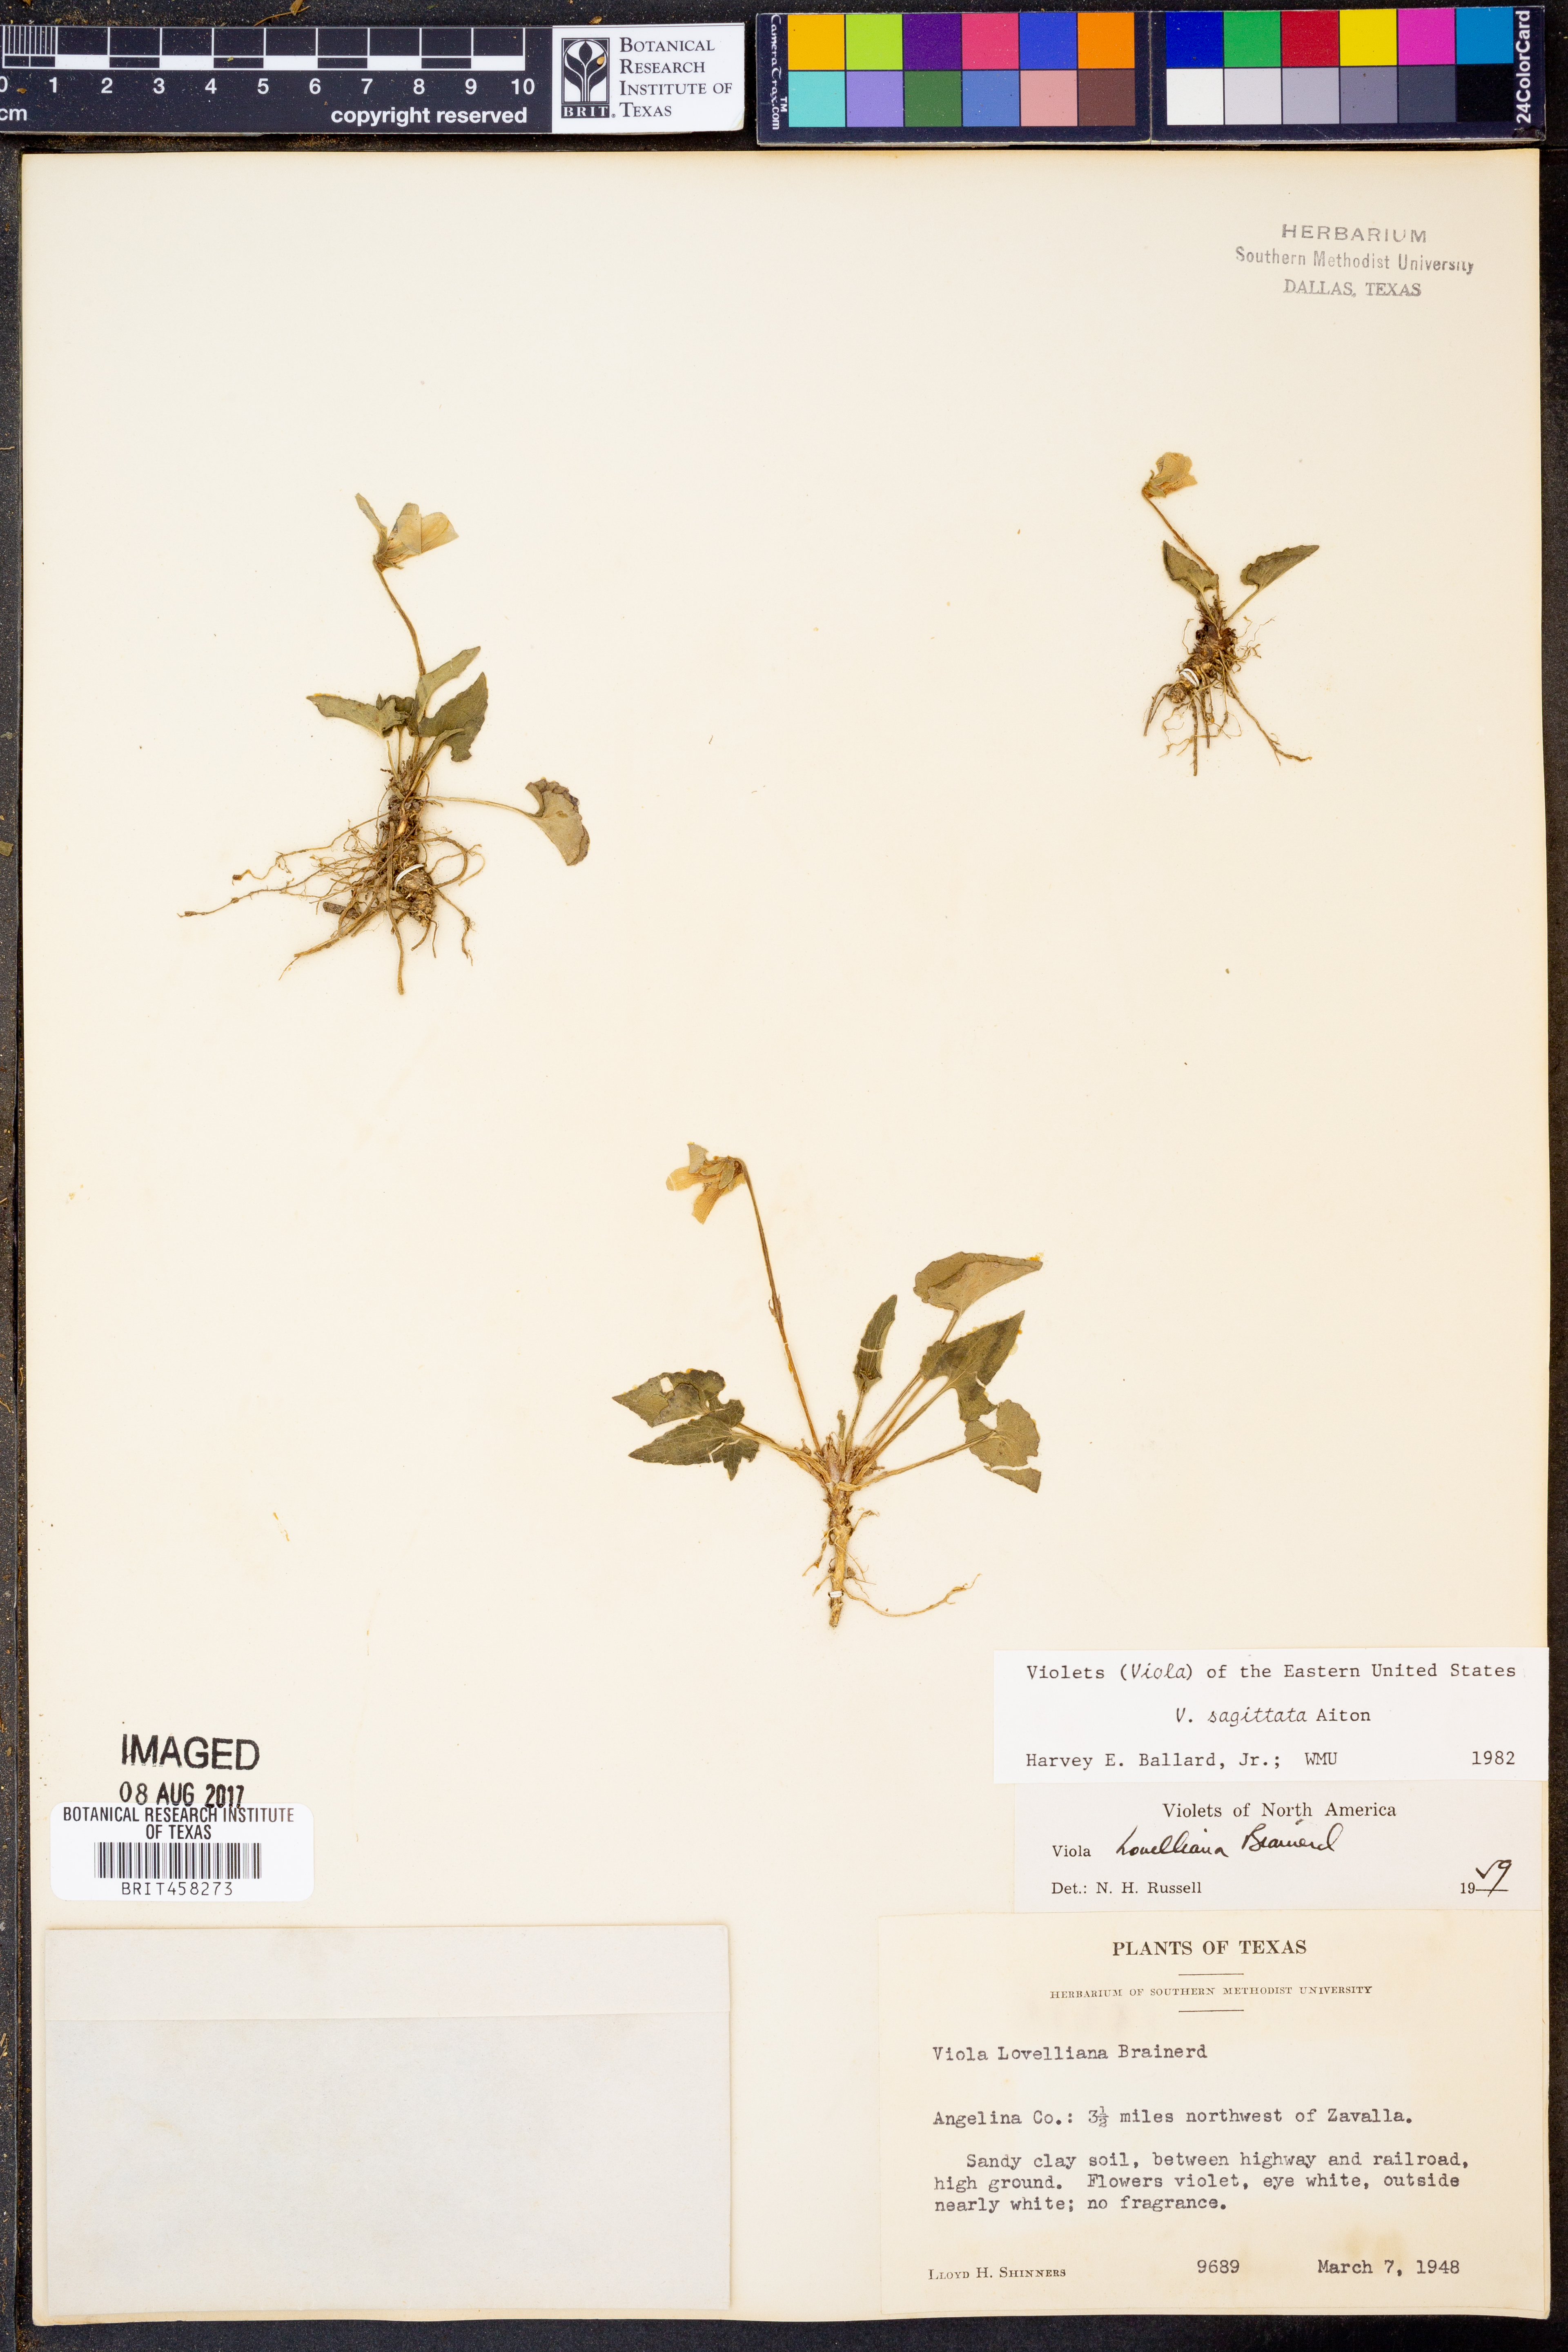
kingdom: Plantae
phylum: Tracheophyta
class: Magnoliopsida
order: Malpighiales
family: Violaceae
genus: Viola
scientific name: Viola sagittata
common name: Arrowhead violet
